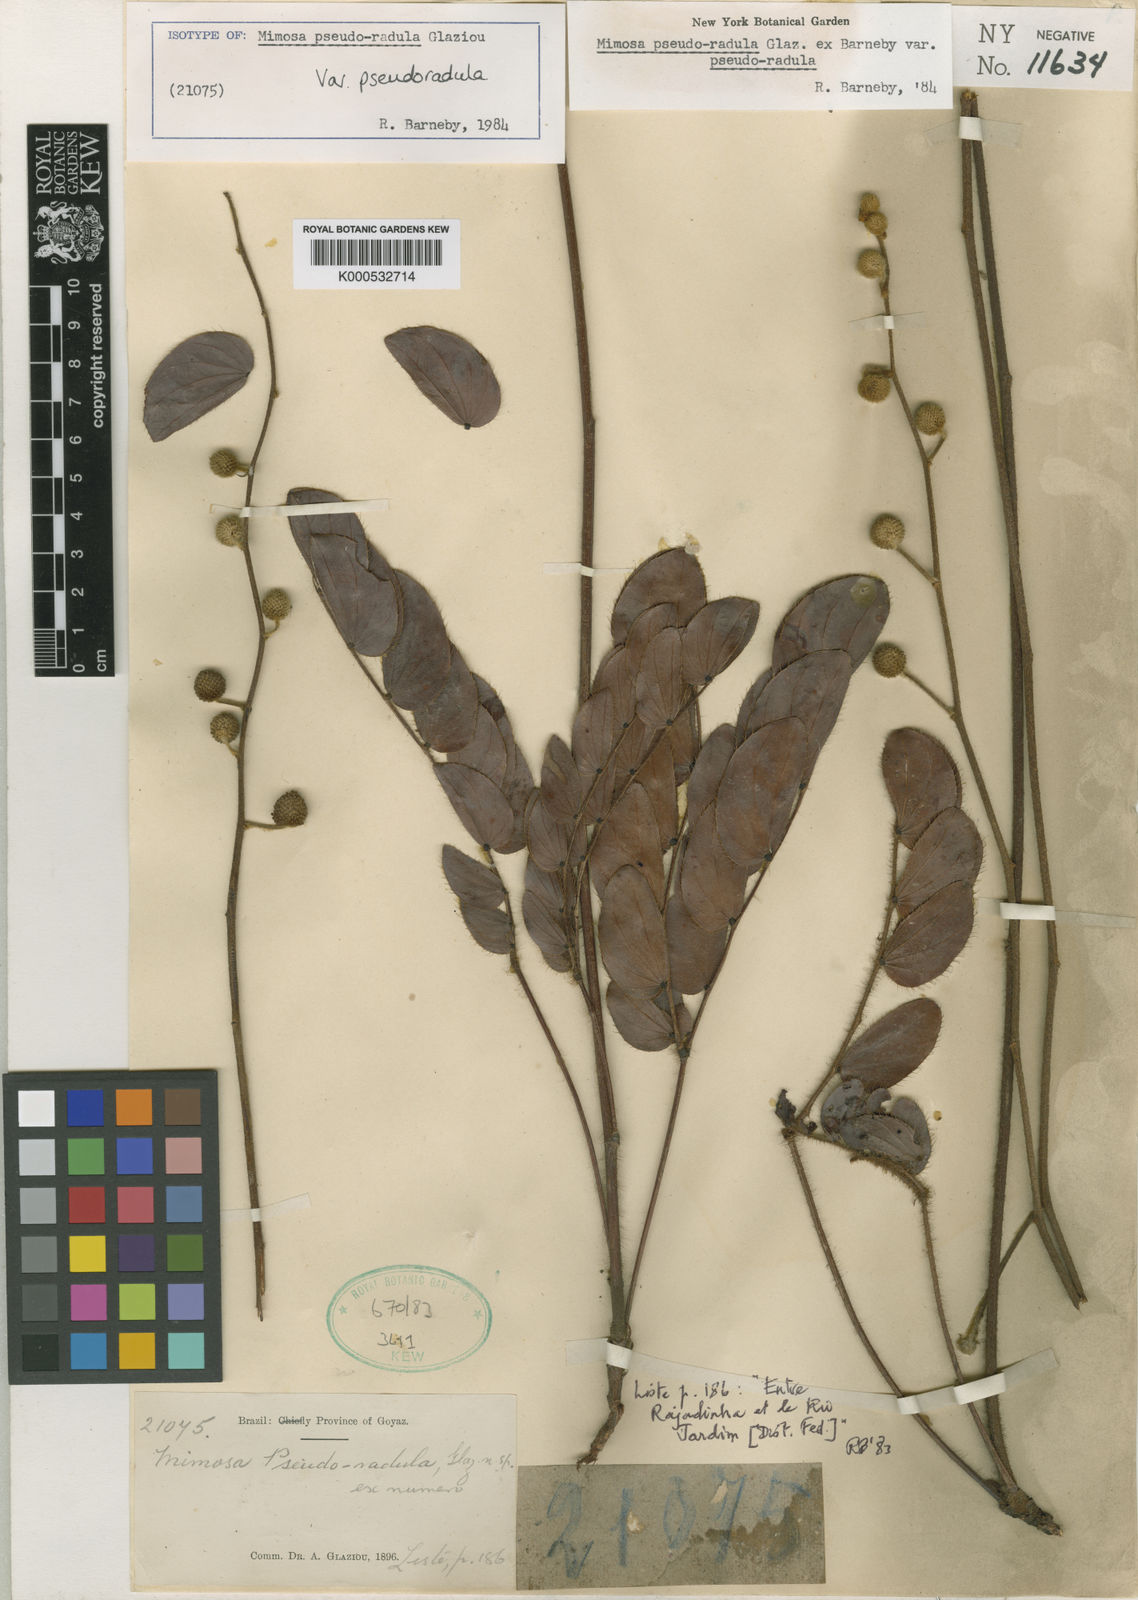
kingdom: Plantae
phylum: Tracheophyta
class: Magnoliopsida
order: Fabales
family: Fabaceae
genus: Mimosa
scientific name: Mimosa pseudoradula
